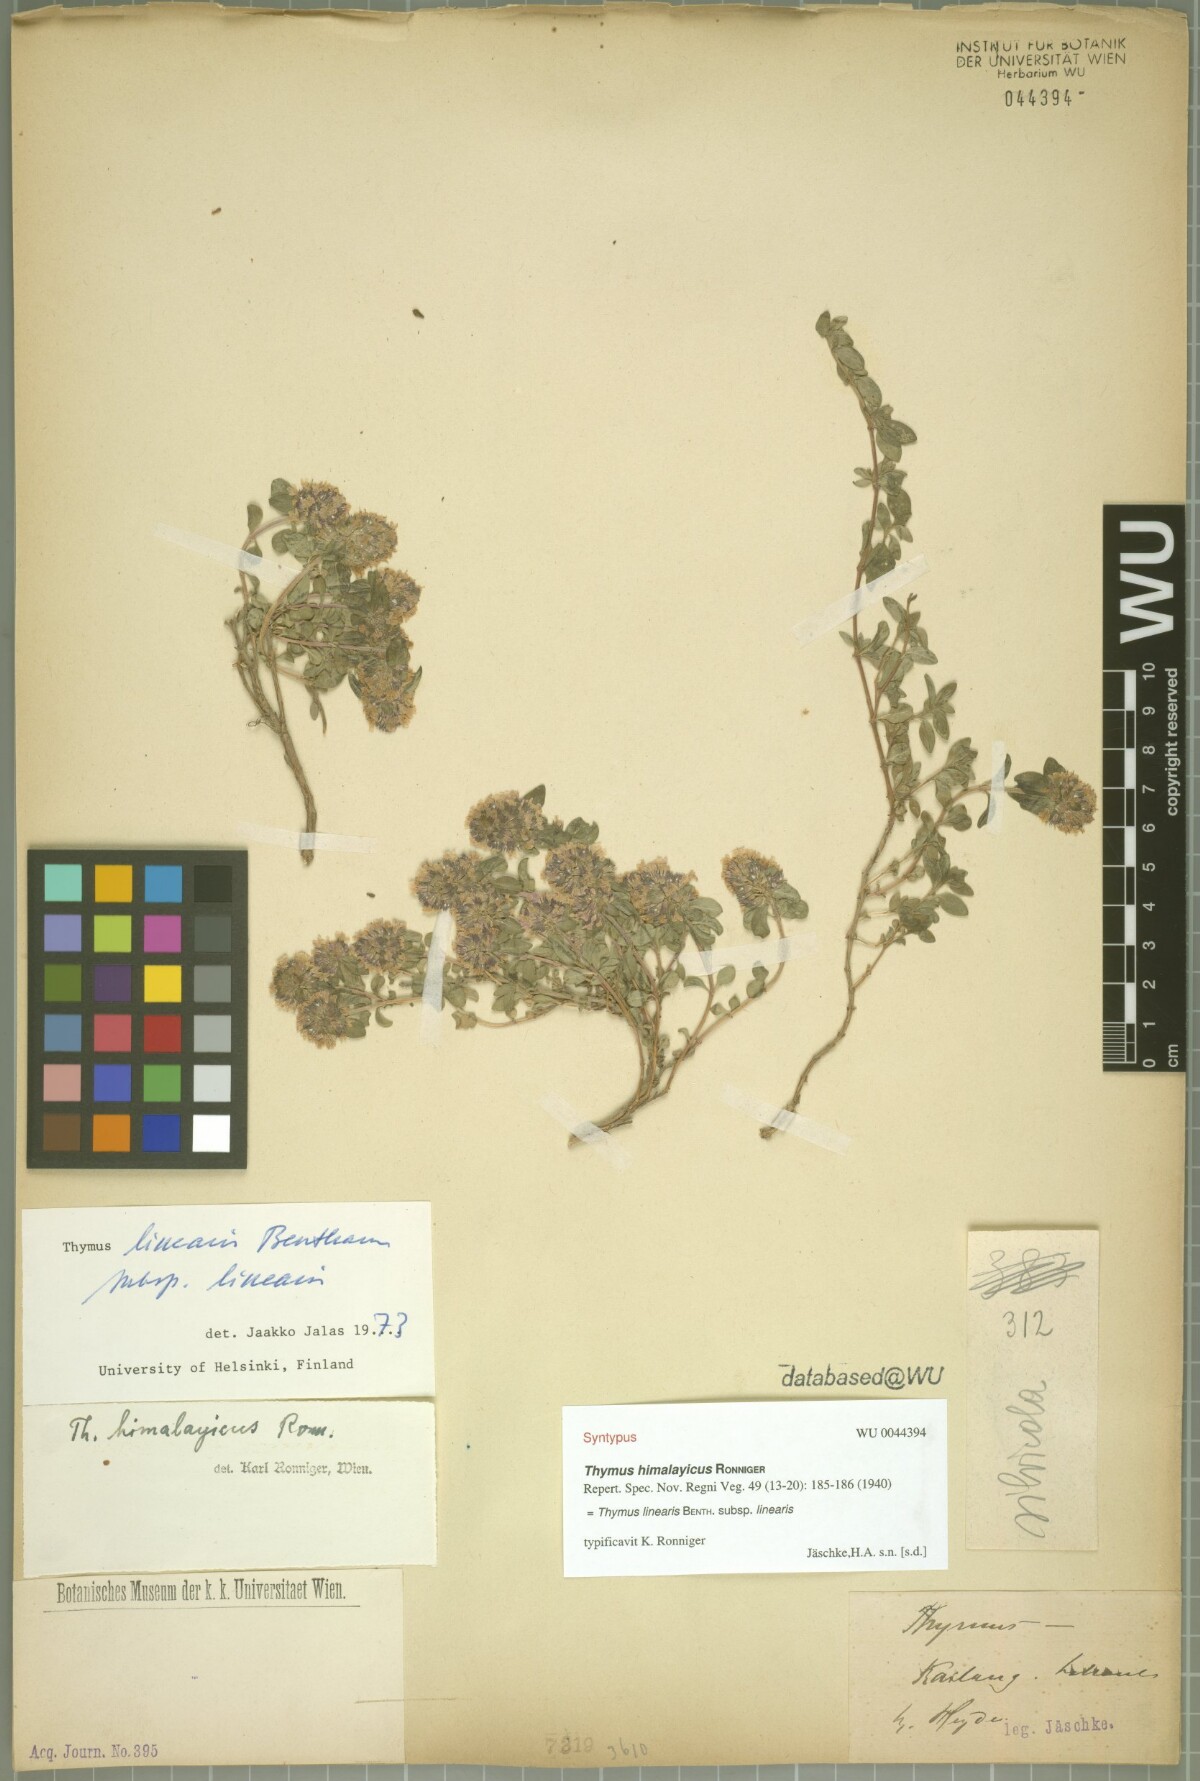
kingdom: Plantae
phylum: Tracheophyta
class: Magnoliopsida
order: Lamiales
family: Lamiaceae
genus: Thymus
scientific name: Thymus linearis
